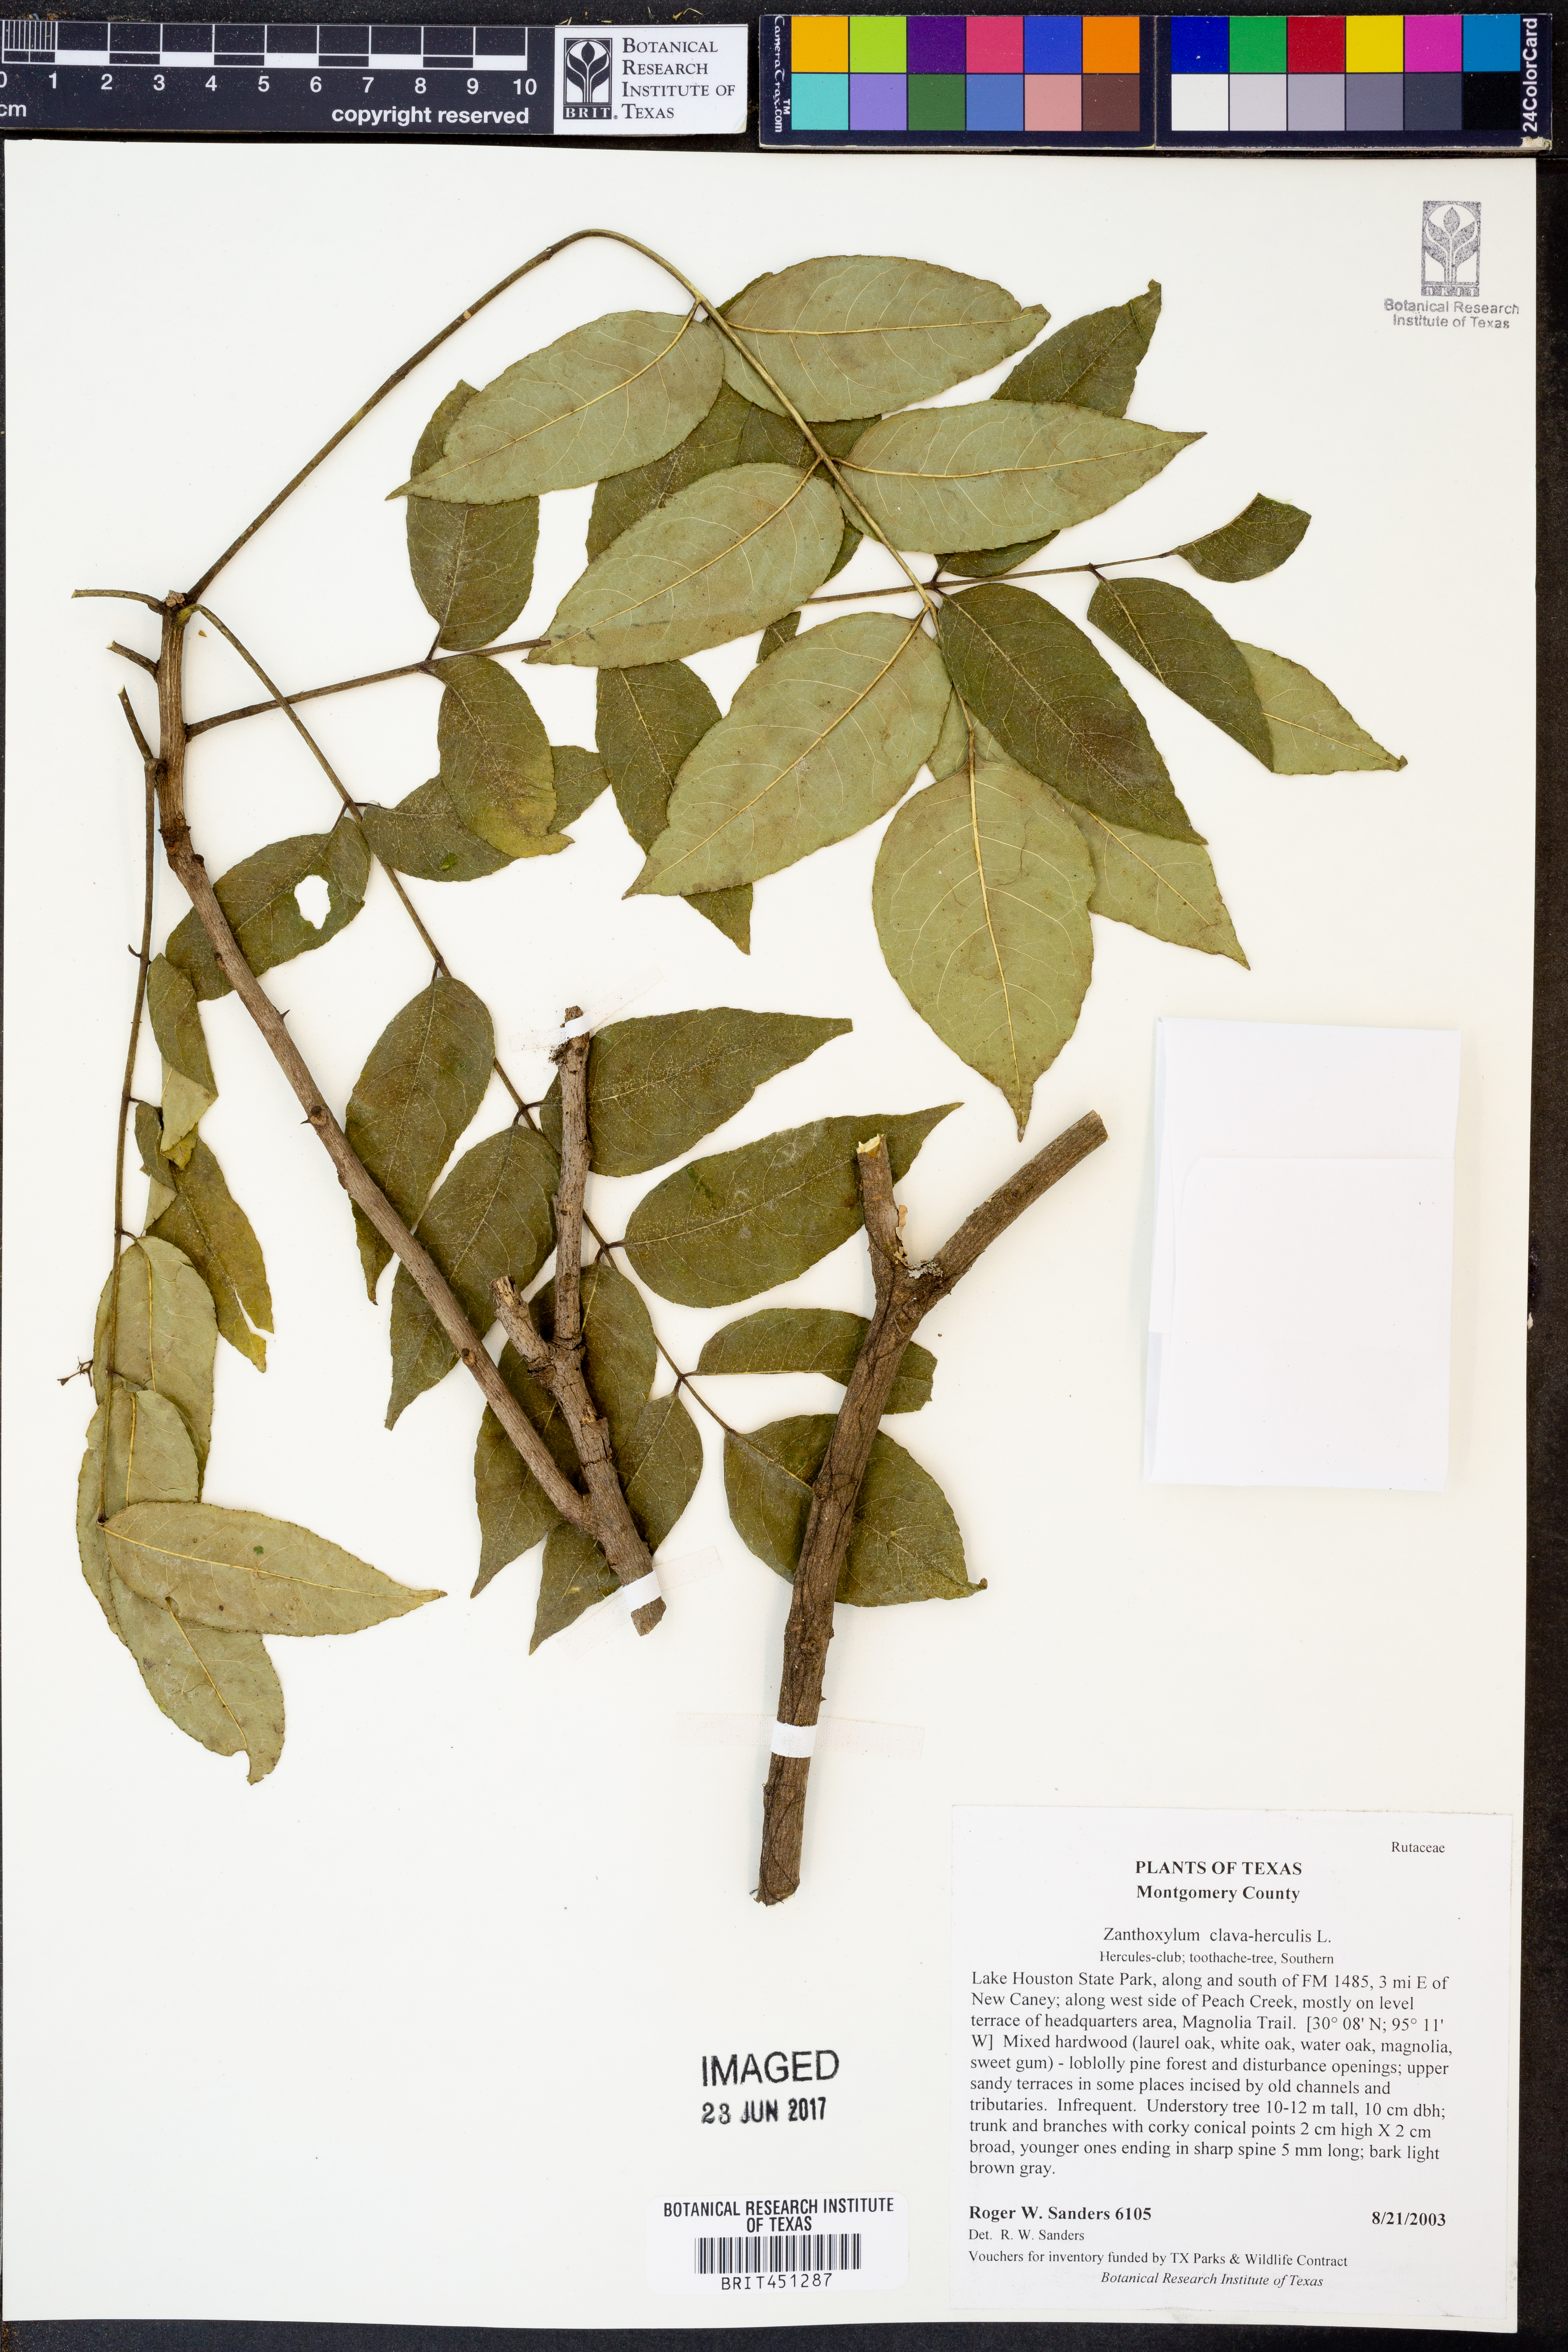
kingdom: Plantae
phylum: Tracheophyta
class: Magnoliopsida
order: Sapindales
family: Rutaceae
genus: Zanthoxylum
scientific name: Zanthoxylum avicennae
